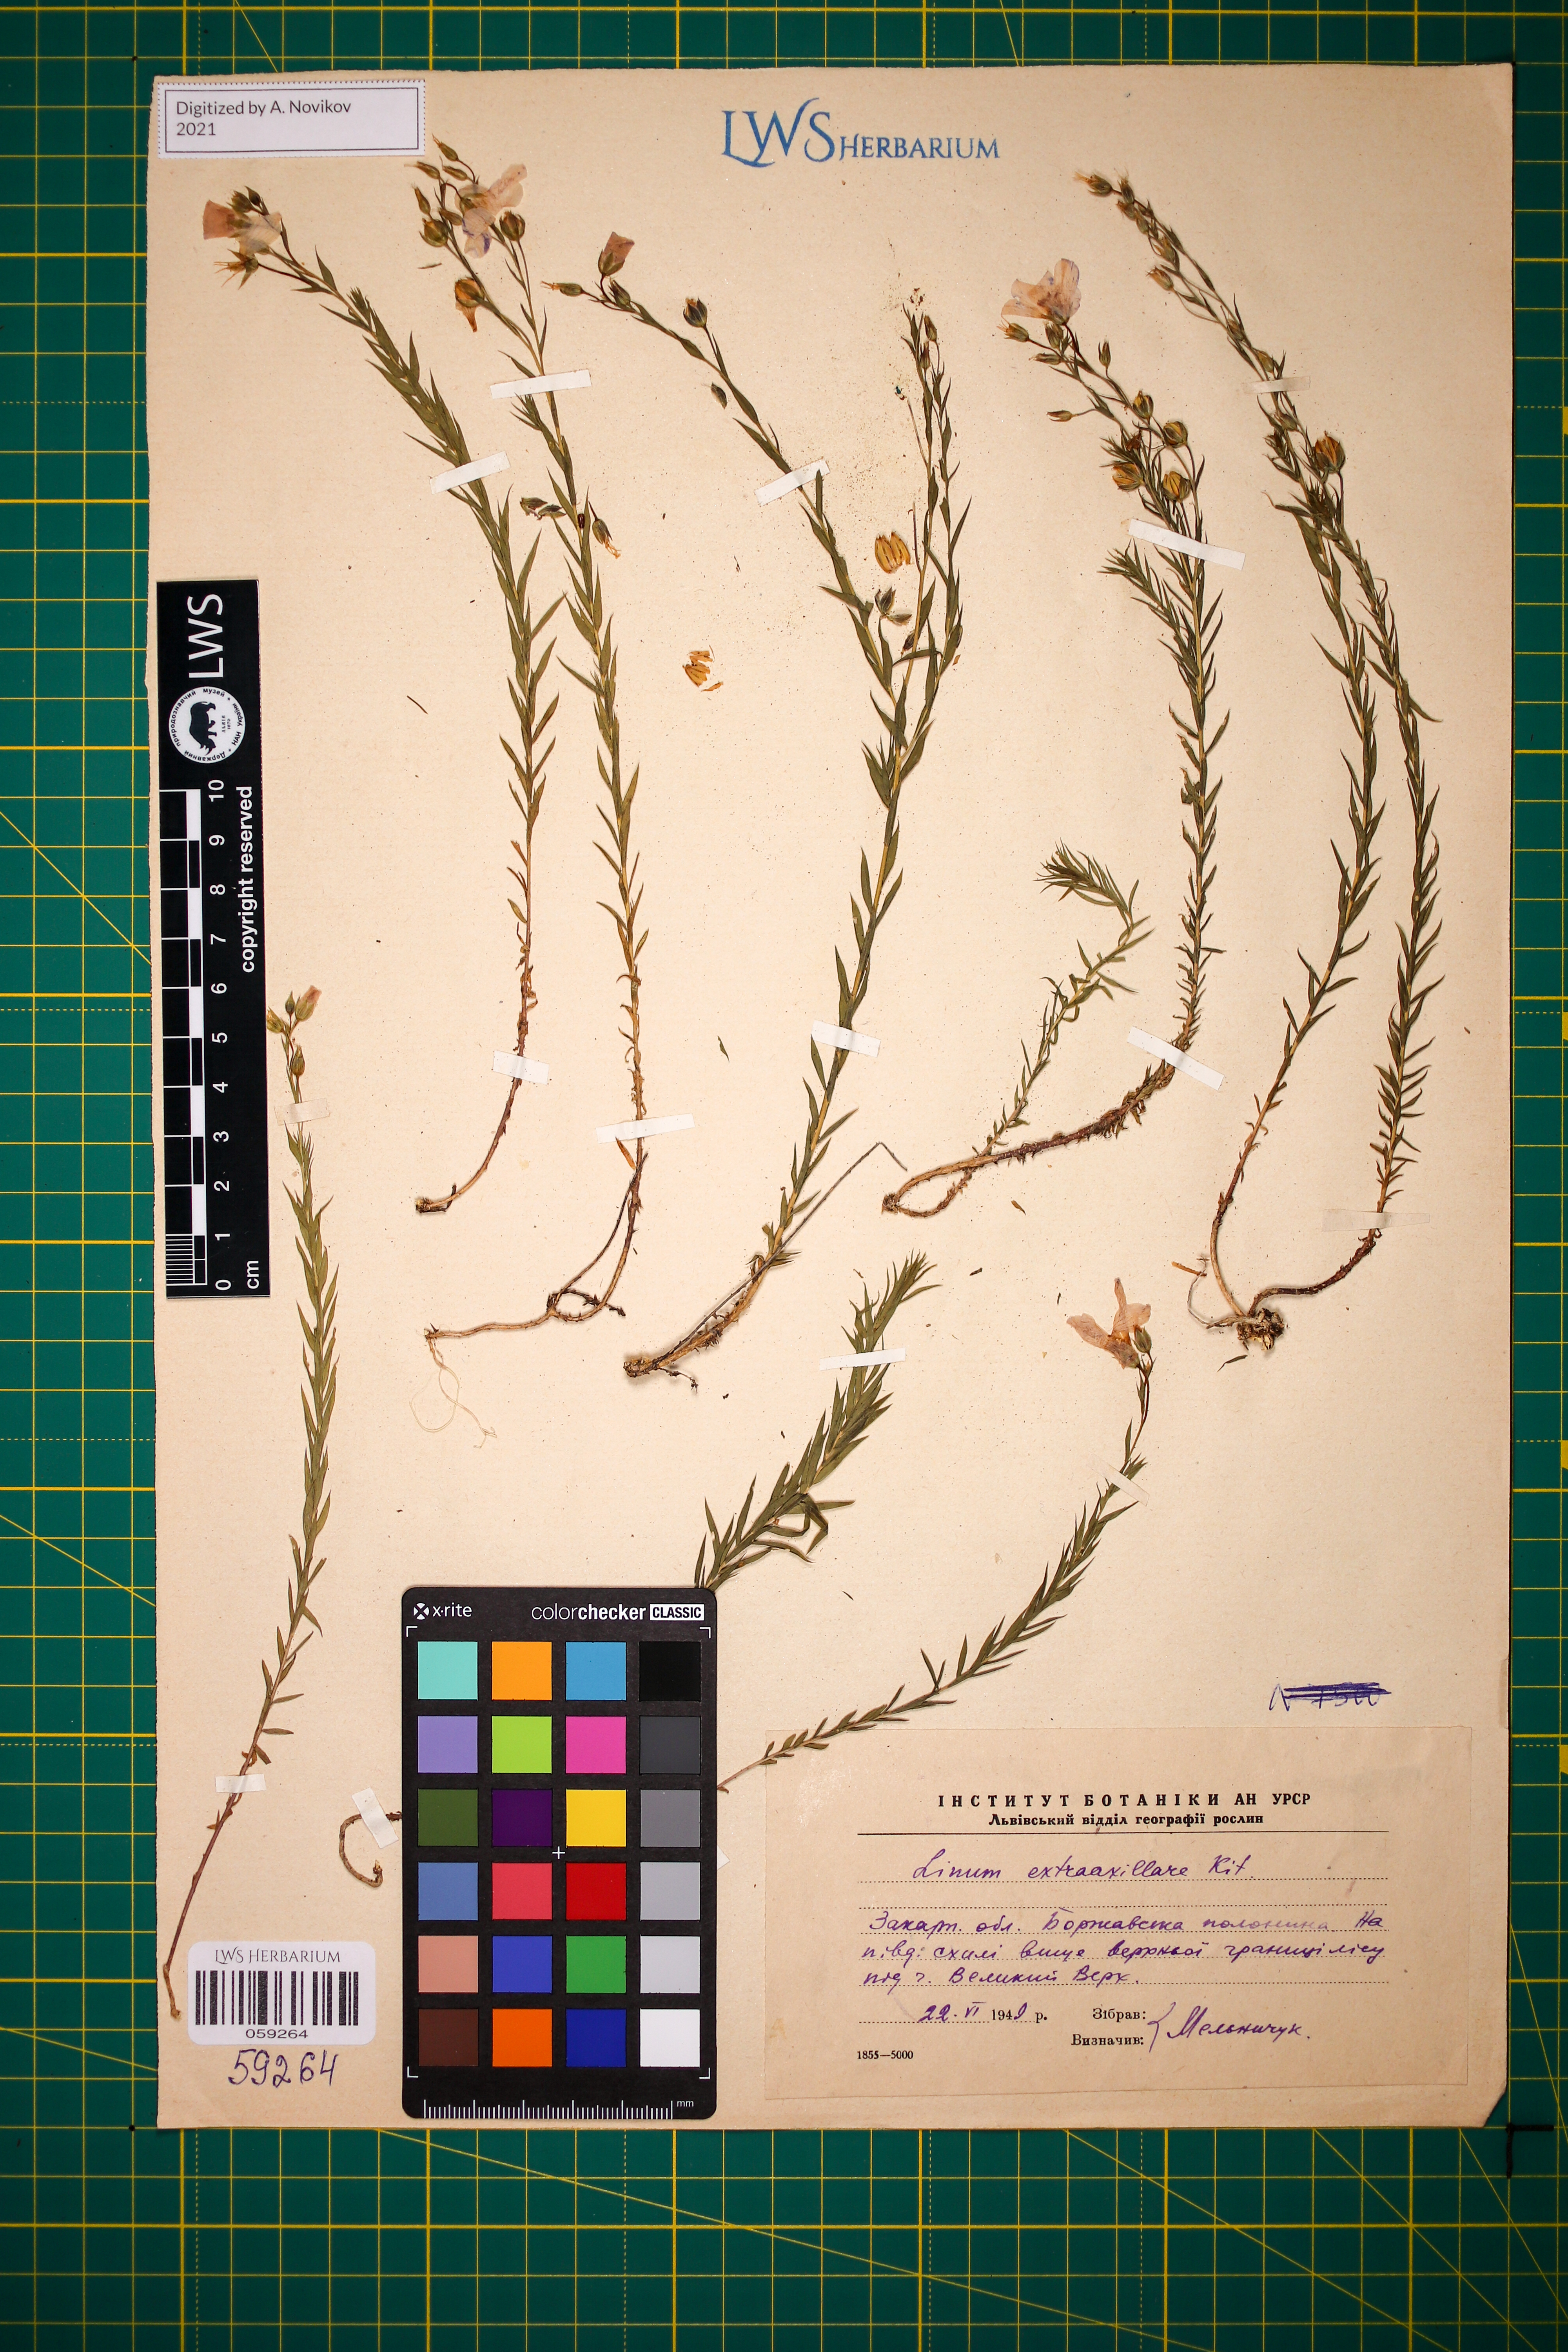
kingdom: Plantae
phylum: Tracheophyta
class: Magnoliopsida
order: Malpighiales
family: Linaceae
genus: Linum
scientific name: Linum perenne
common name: Blue flax
